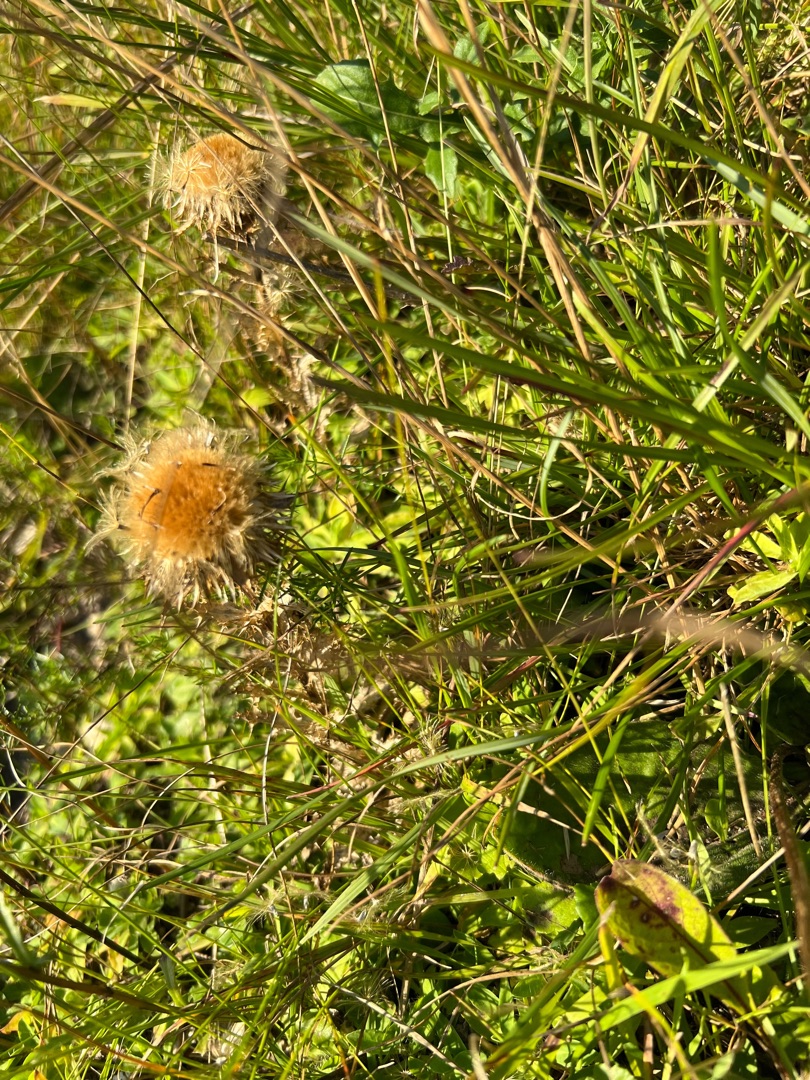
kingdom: Plantae
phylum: Tracheophyta
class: Magnoliopsida
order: Asterales
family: Asteraceae
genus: Carlina
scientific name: Carlina vulgaris
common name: Bakketidsel
